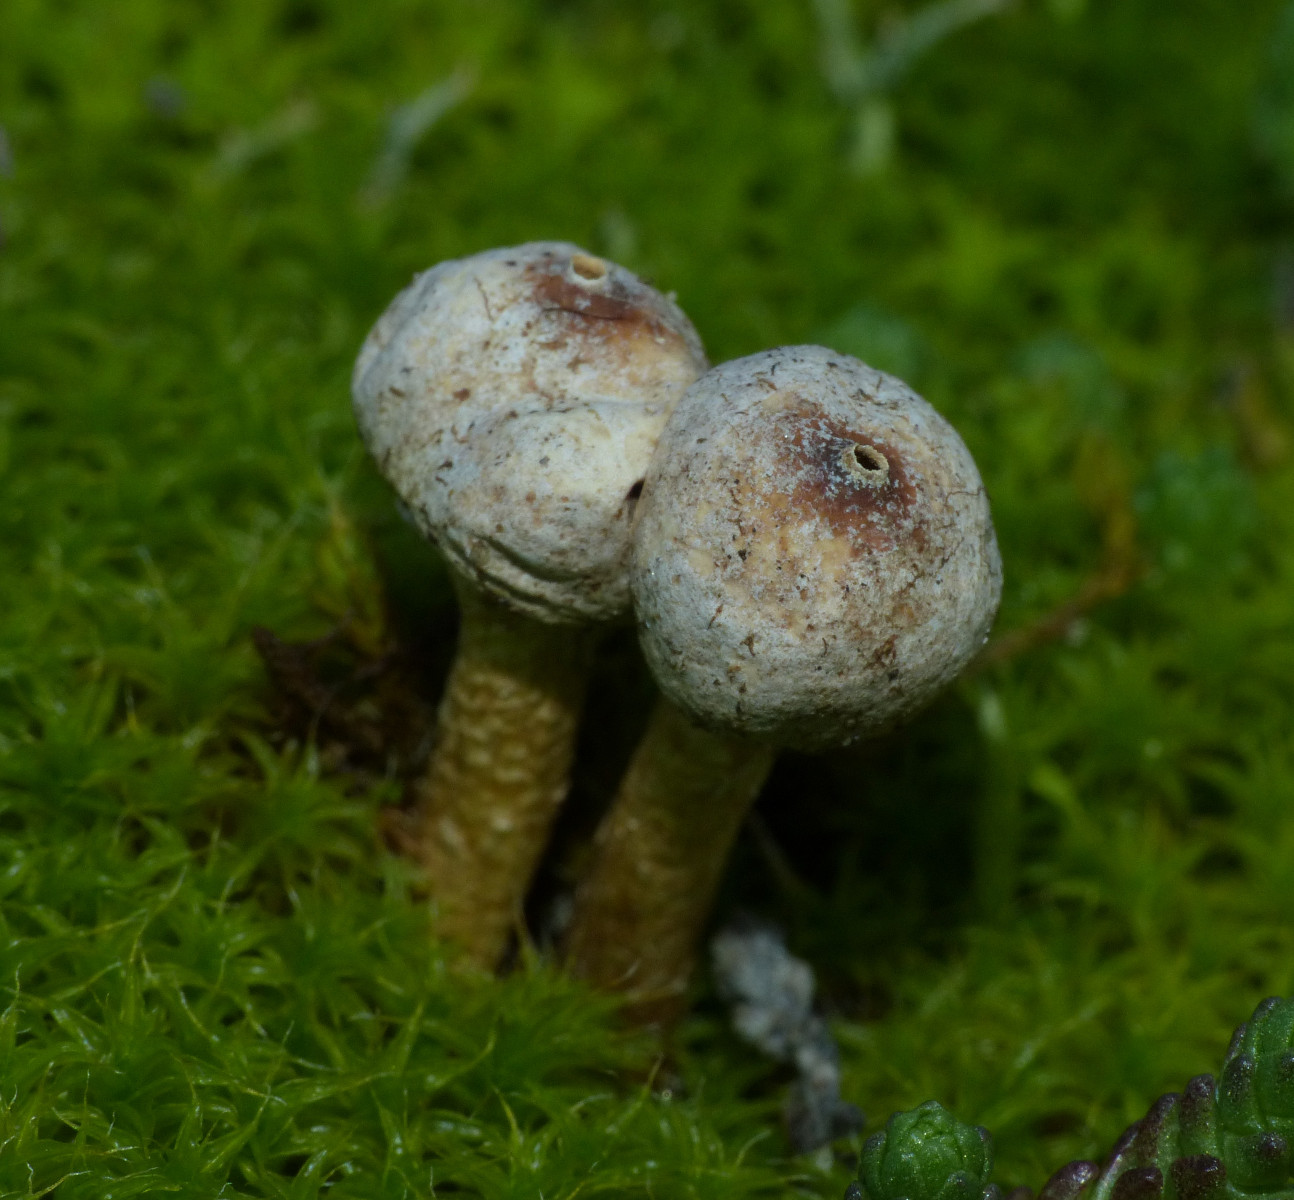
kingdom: Fungi
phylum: Basidiomycota
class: Agaricomycetes
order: Agaricales
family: Agaricaceae
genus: Tulostoma
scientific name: Tulostoma brumale
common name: vinter-stilkbovist
